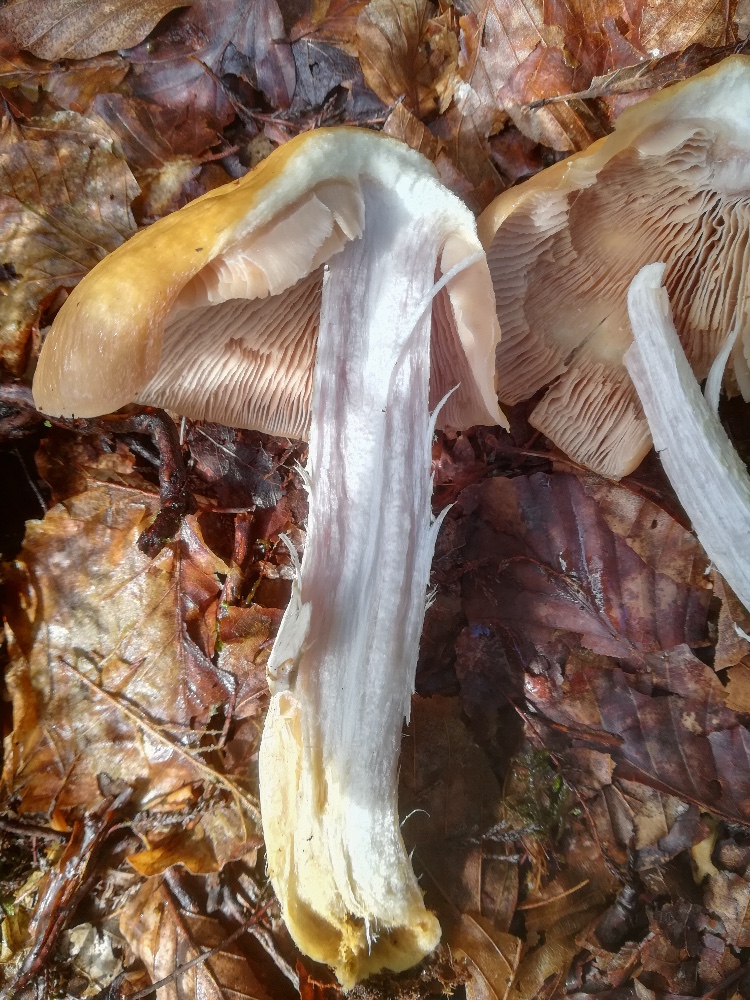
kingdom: Fungi
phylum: Basidiomycota
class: Agaricomycetes
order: Agaricales
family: Cortinariaceae
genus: Cortinarius
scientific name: Cortinarius caperatus
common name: klidhat
